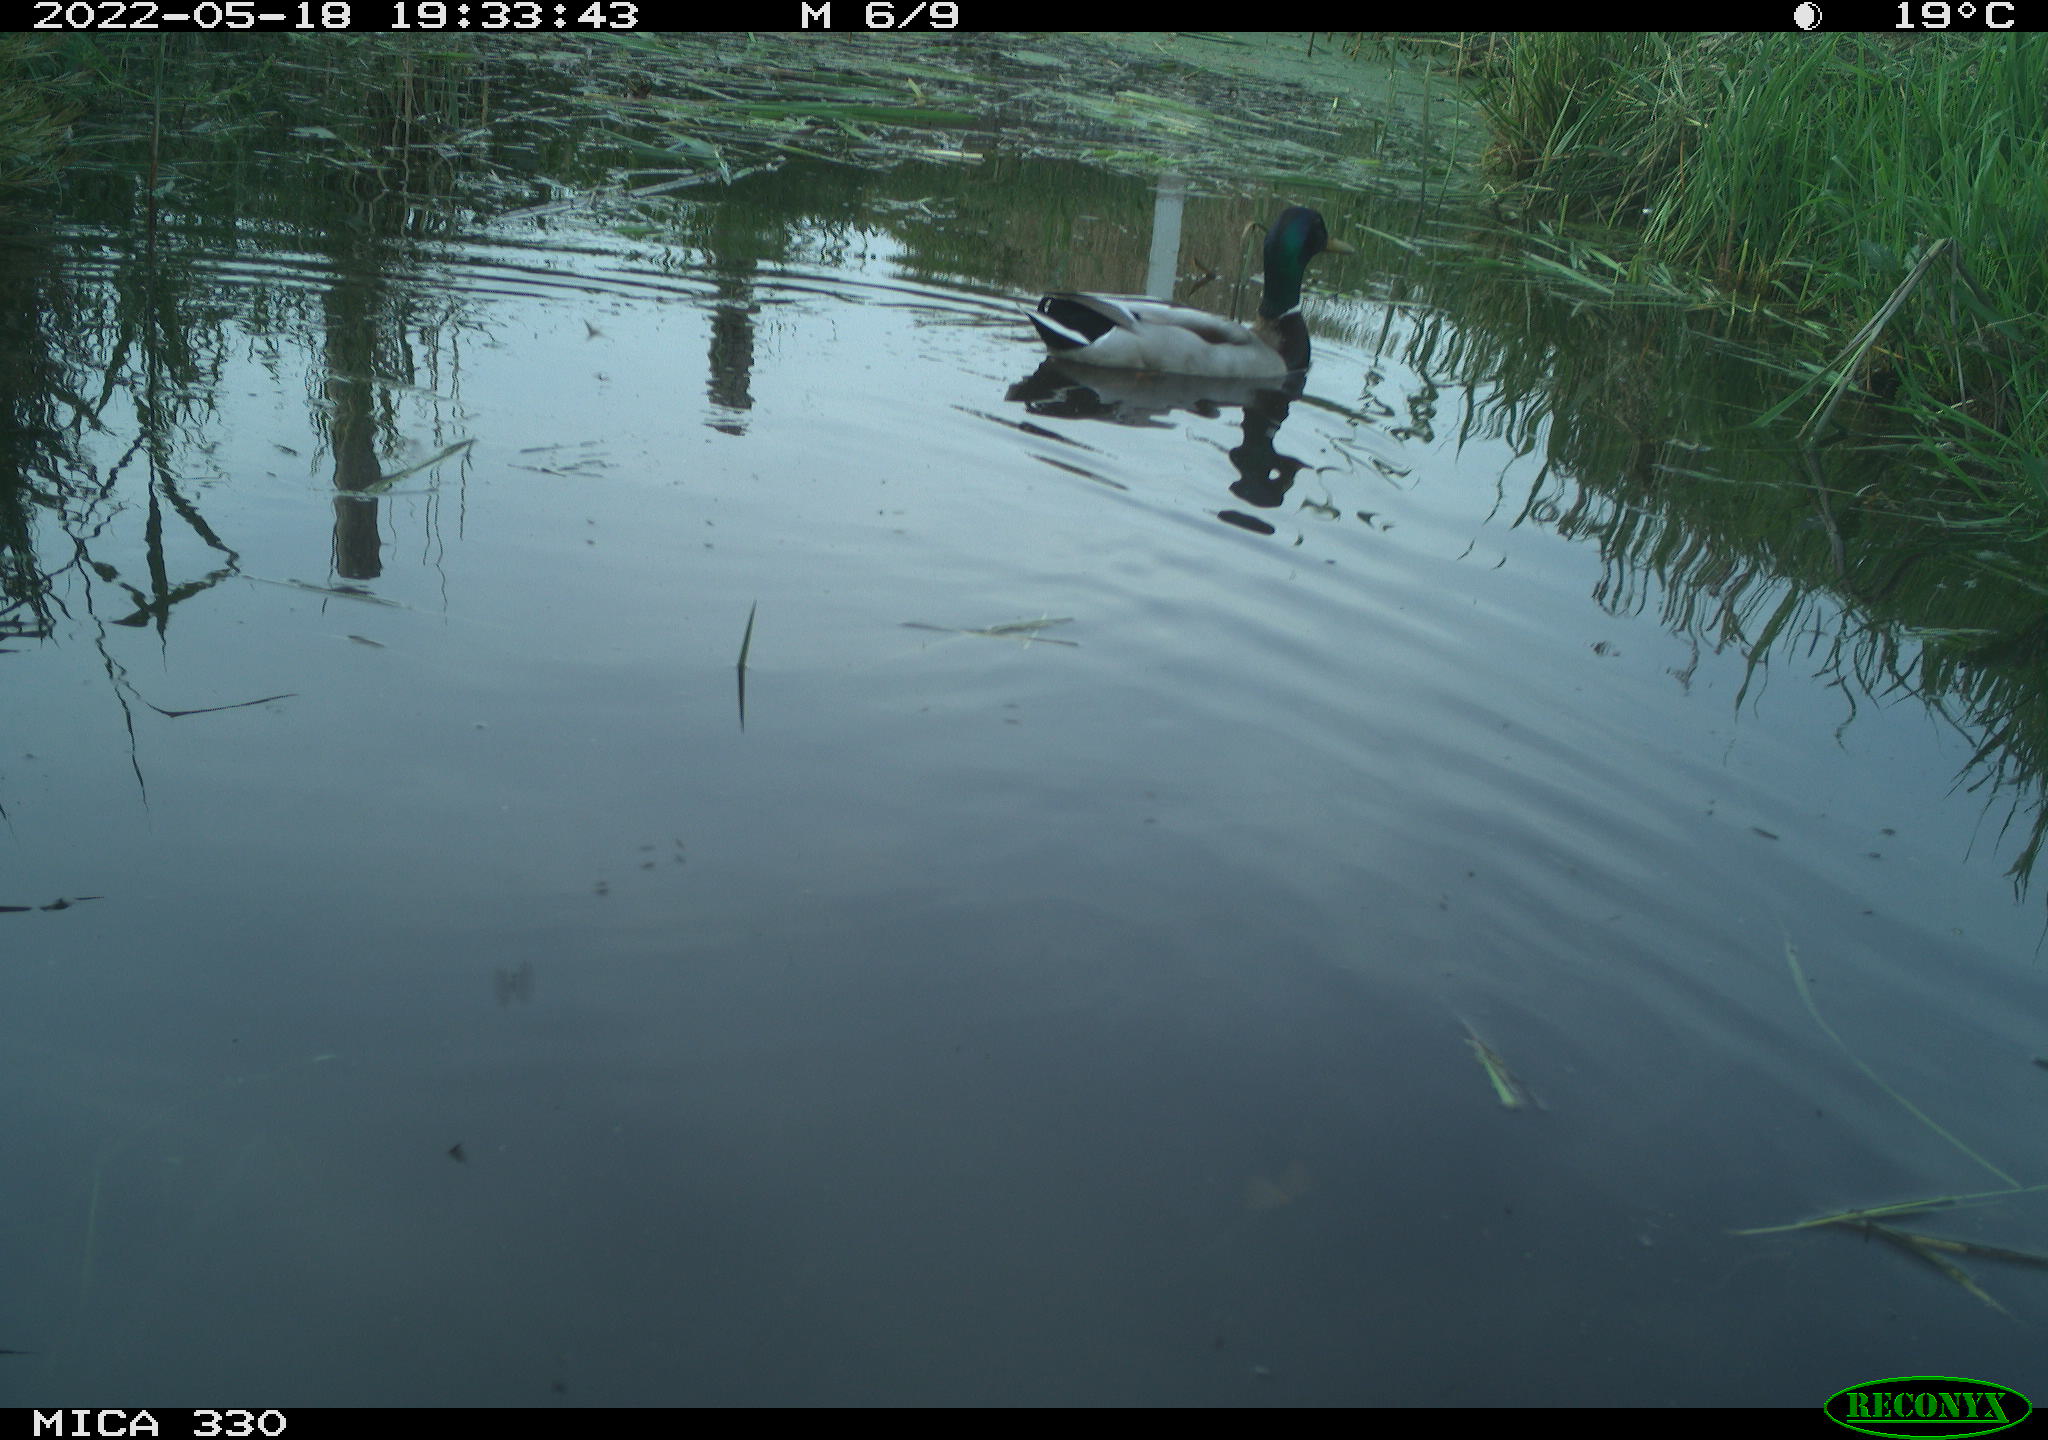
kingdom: Animalia
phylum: Chordata
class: Aves
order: Anseriformes
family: Anatidae
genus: Anas
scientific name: Anas platyrhynchos
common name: Mallard
